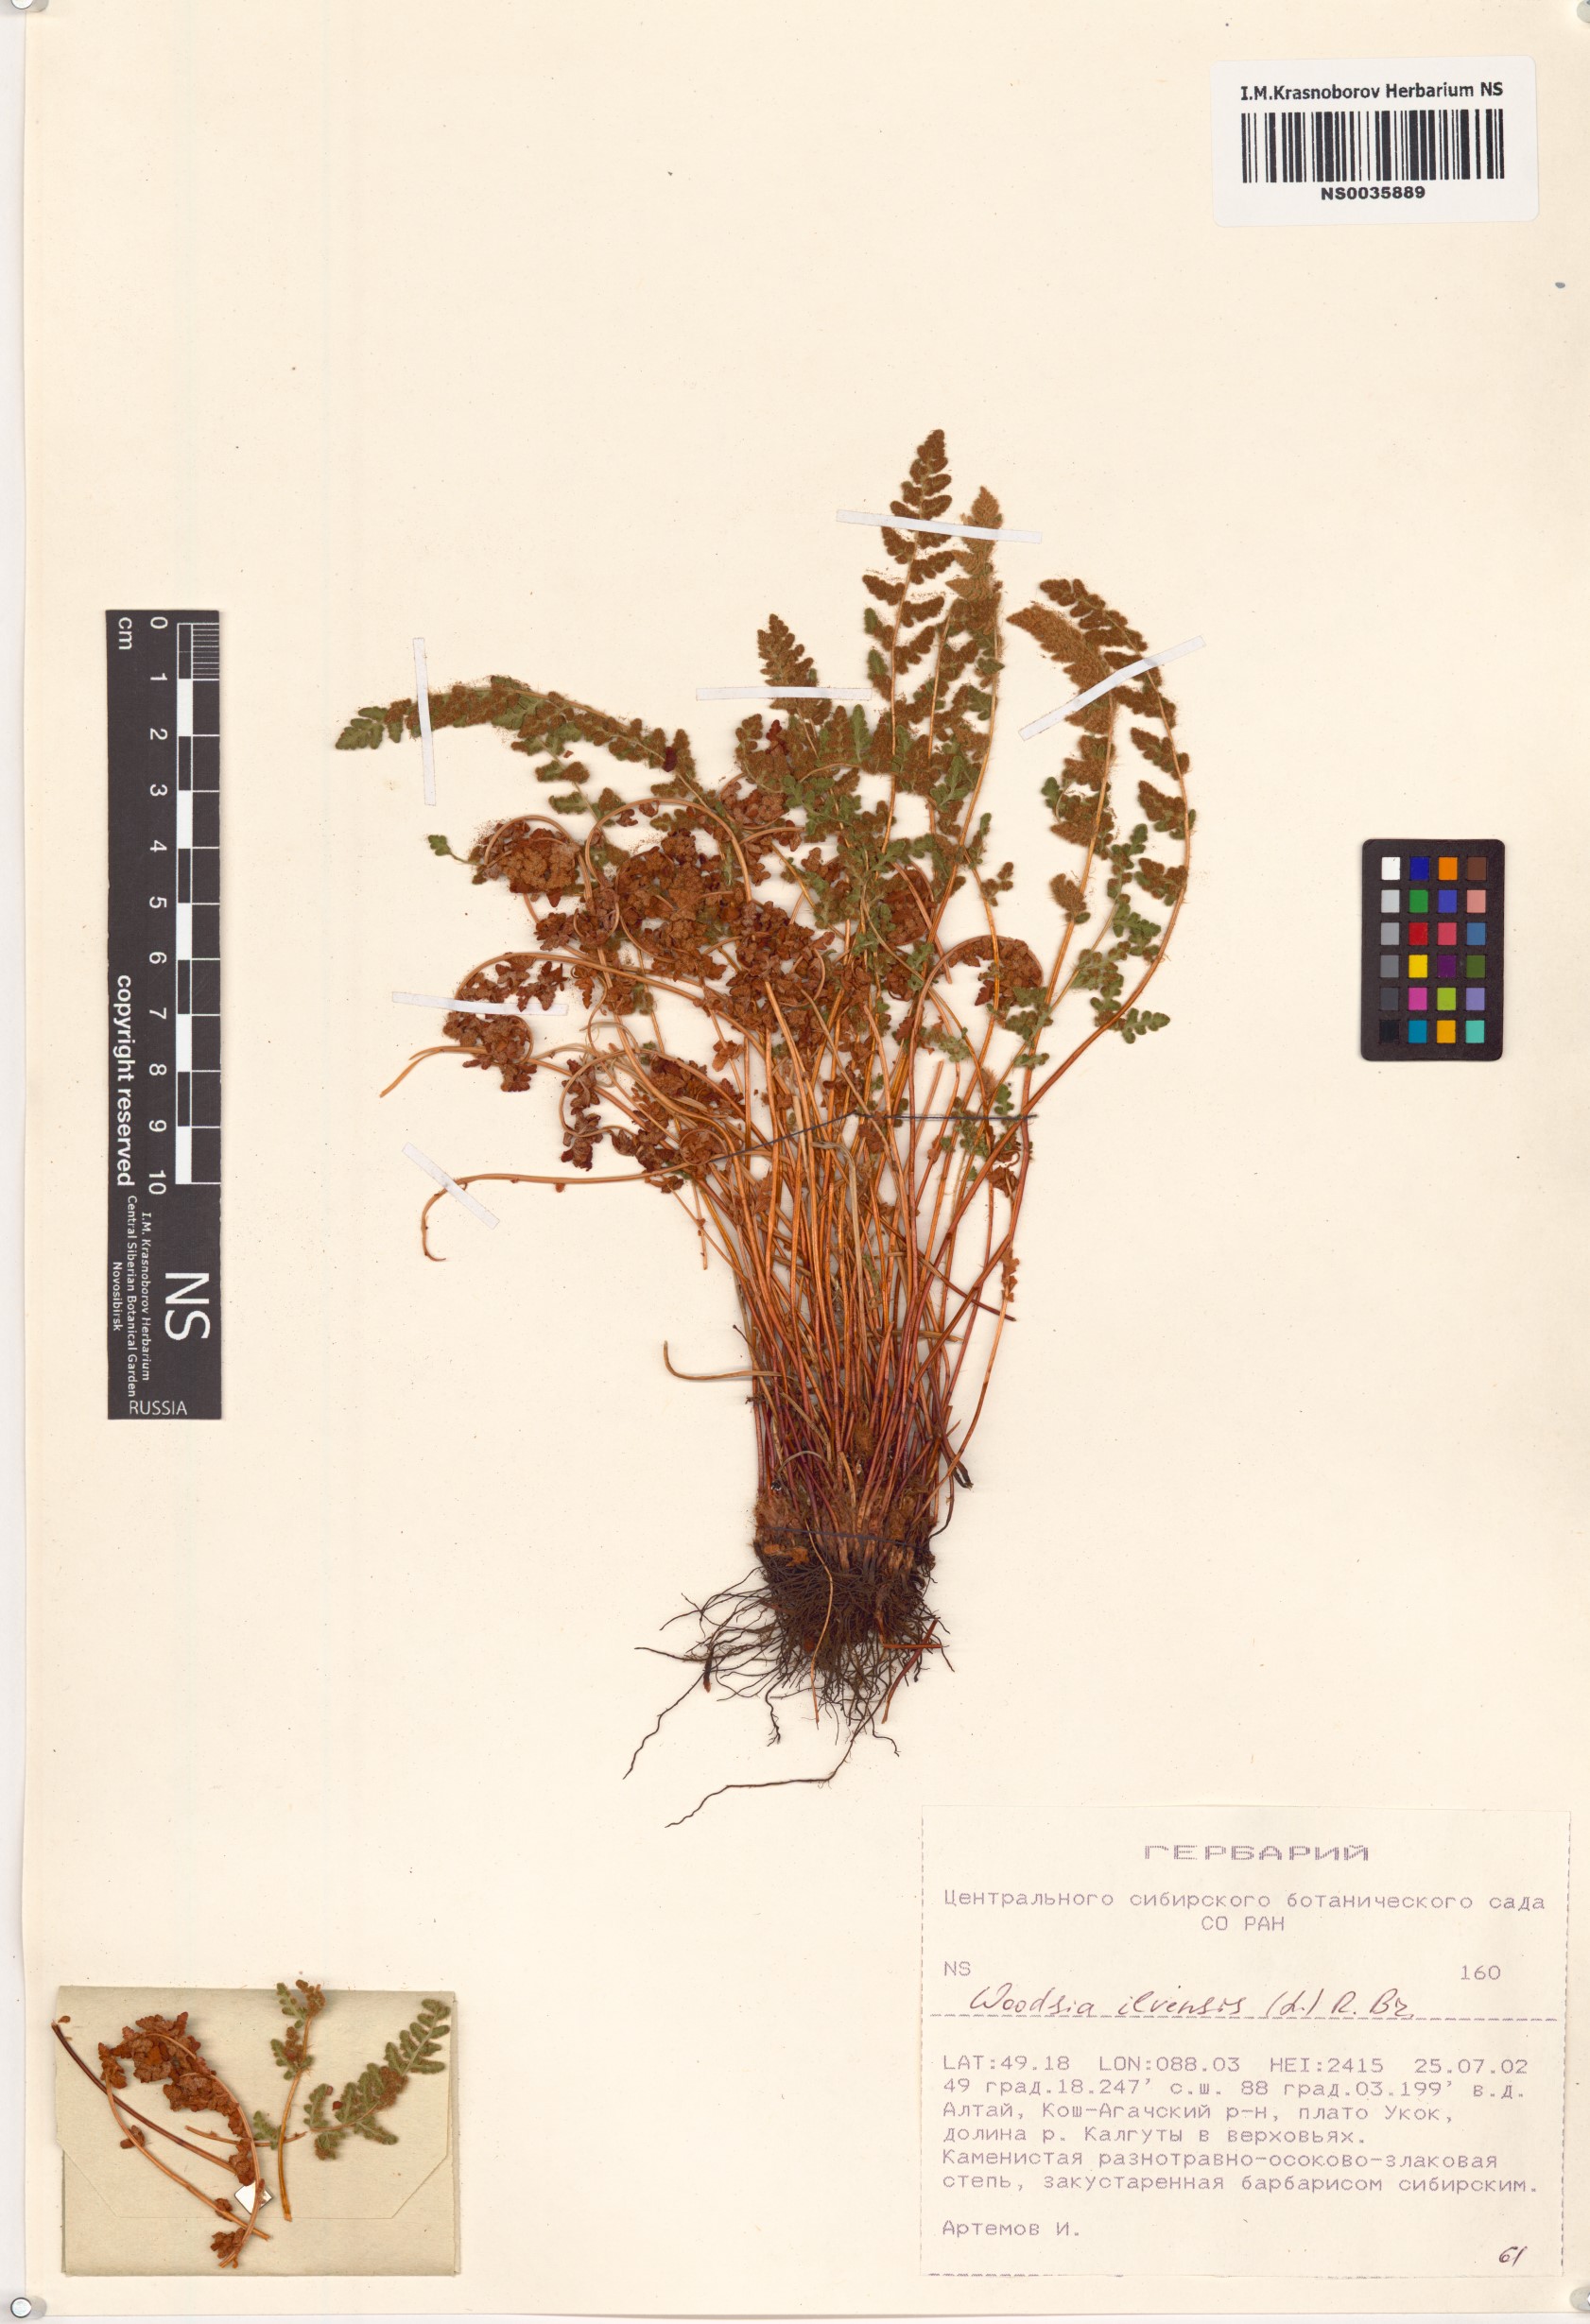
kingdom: Plantae
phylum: Tracheophyta
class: Polypodiopsida
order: Polypodiales
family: Woodsiaceae
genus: Woodsia
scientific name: Woodsia ilvensis
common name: Fragrant woodsia
